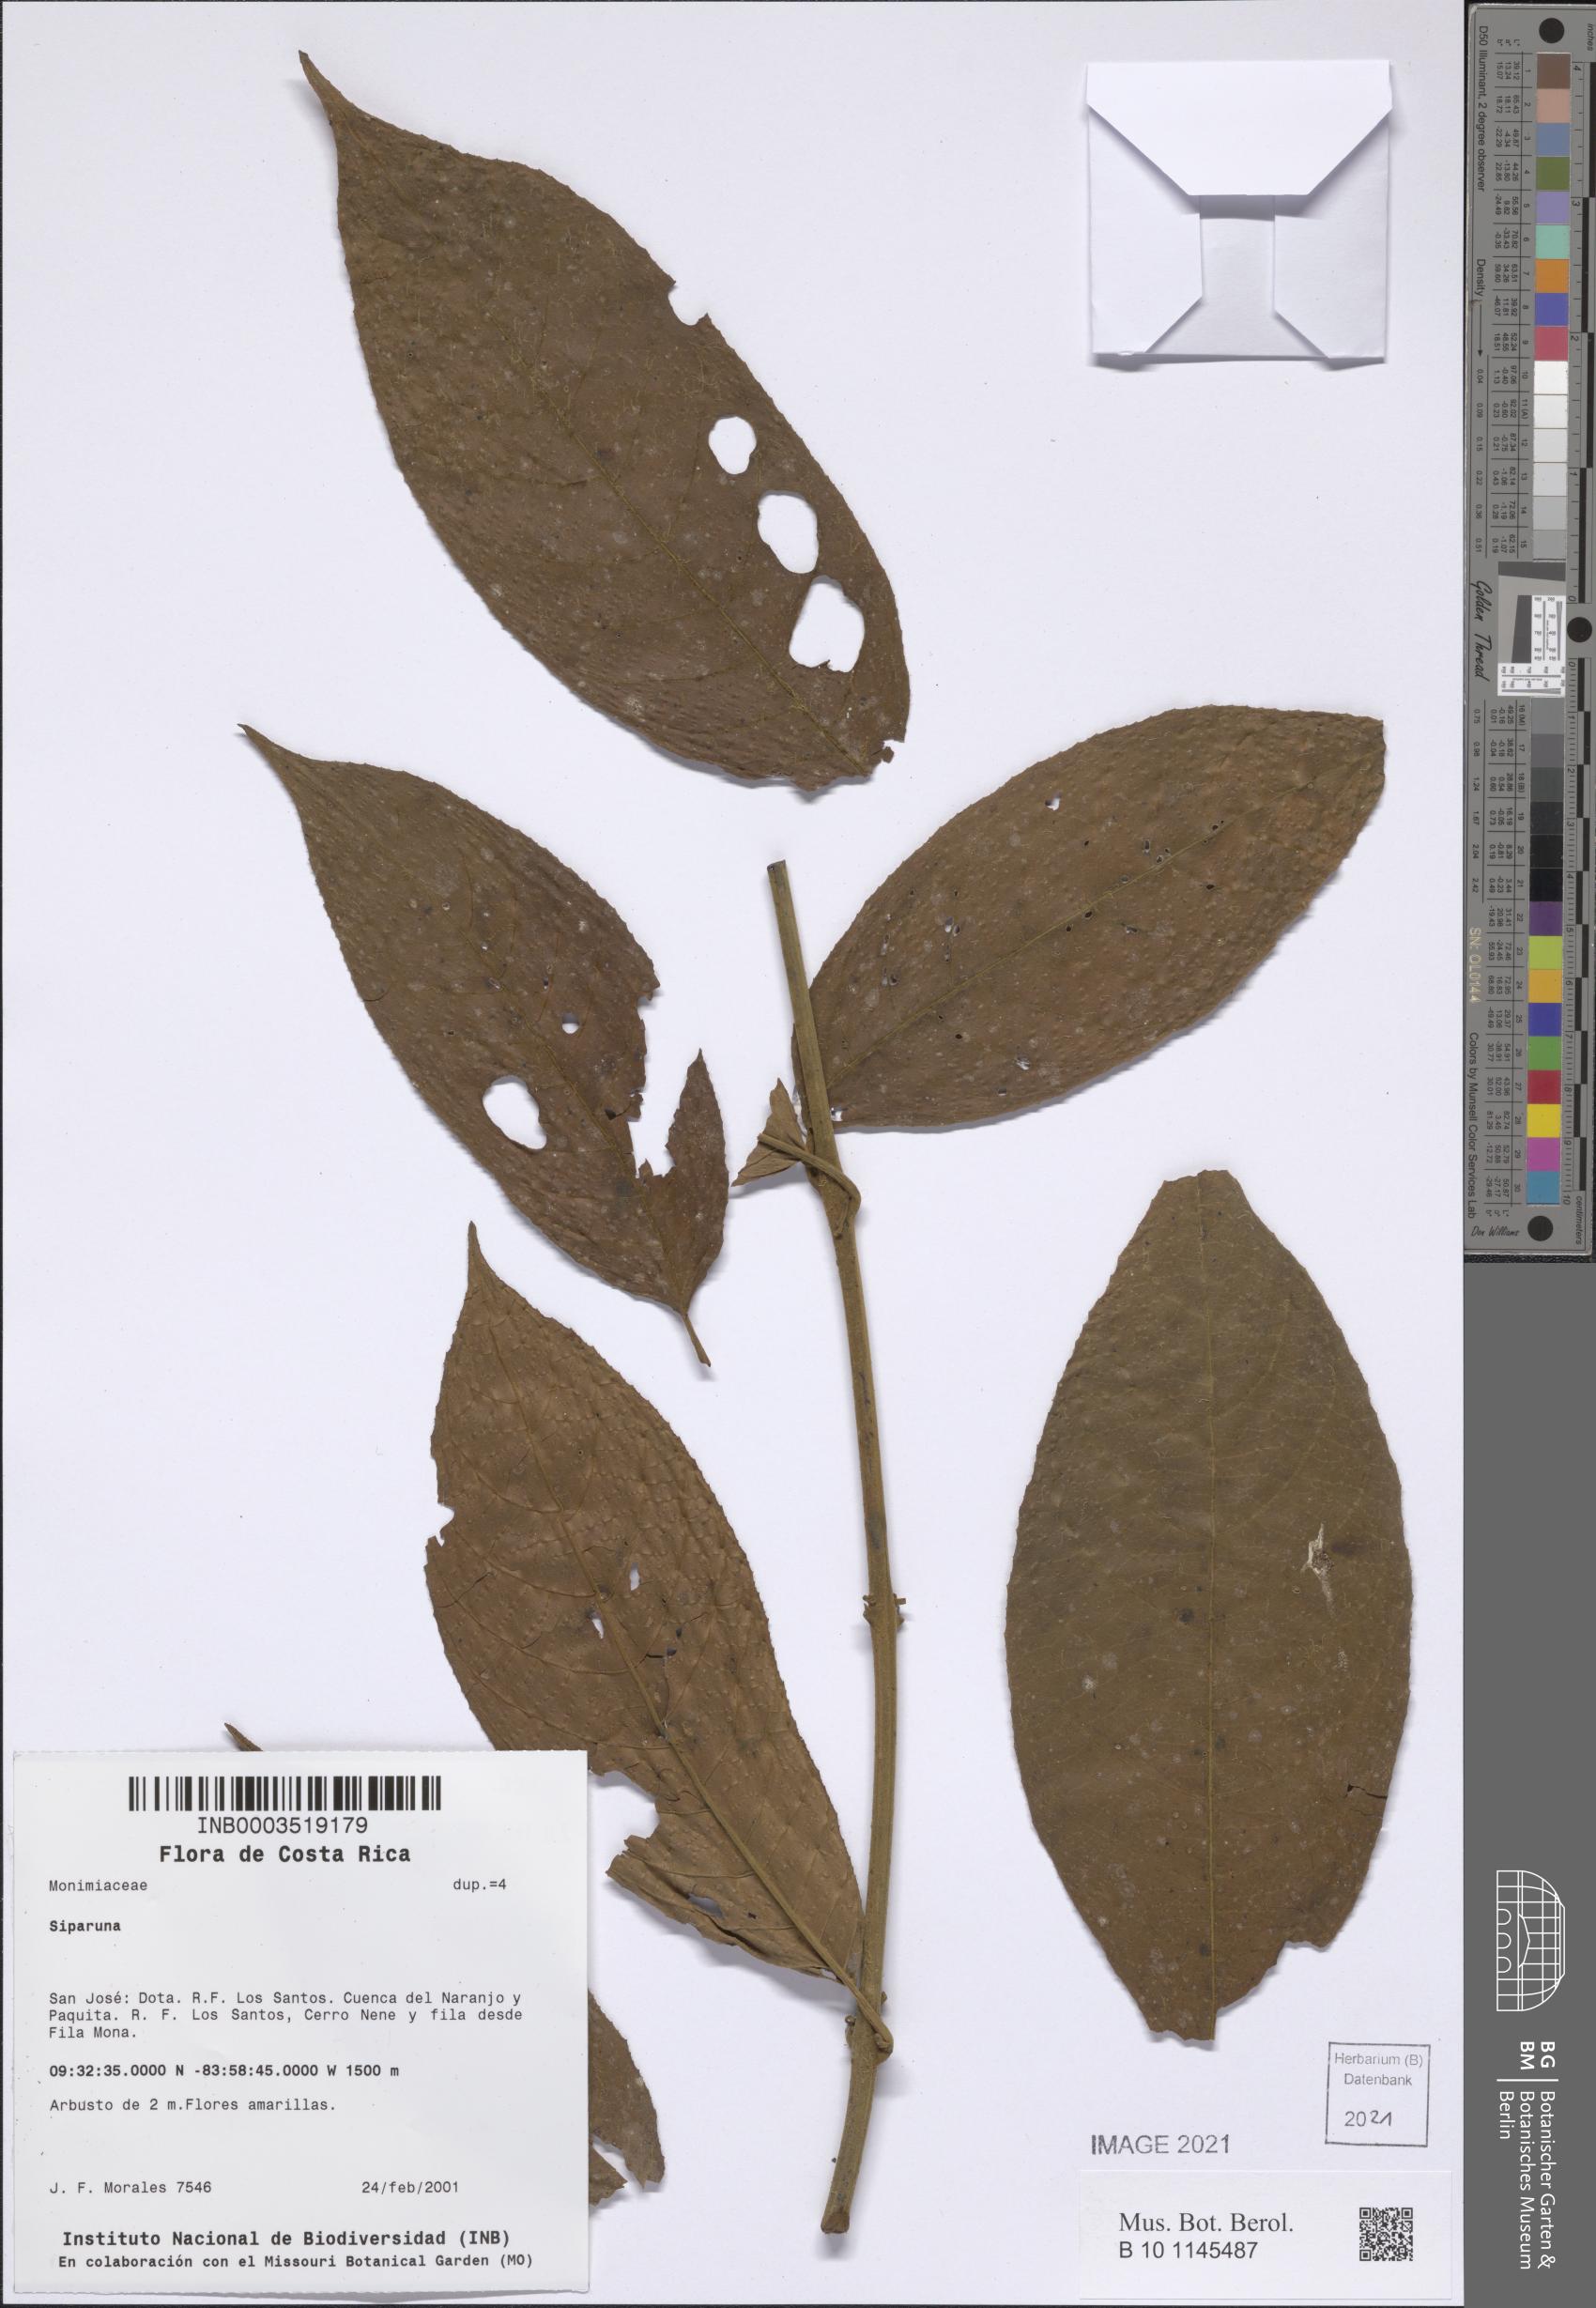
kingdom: Plantae
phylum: Tracheophyta
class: Magnoliopsida
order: Laurales
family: Siparunaceae
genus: Siparuna
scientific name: Siparuna
